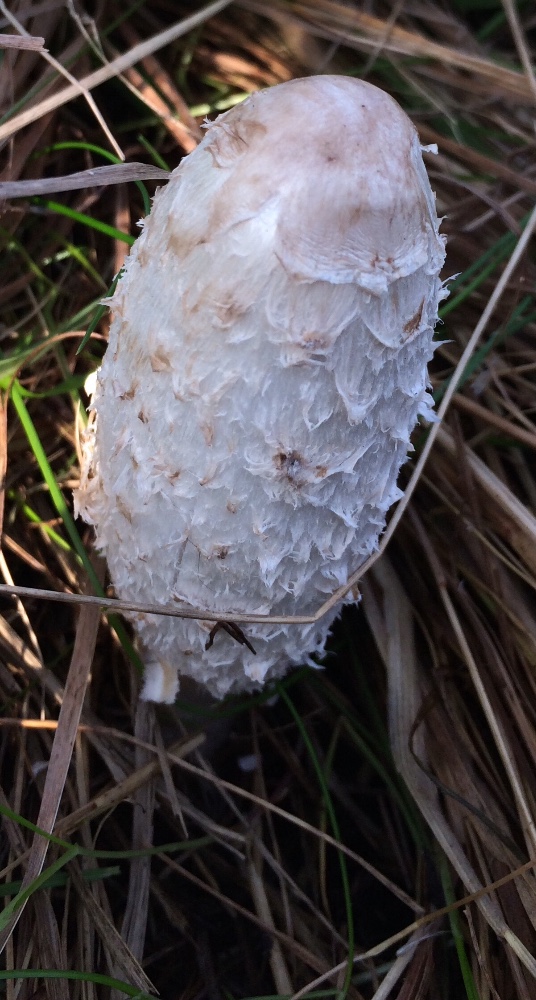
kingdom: Fungi
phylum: Basidiomycota
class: Agaricomycetes
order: Agaricales
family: Agaricaceae
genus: Coprinus
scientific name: Coprinus comatus
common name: stor parykhat
